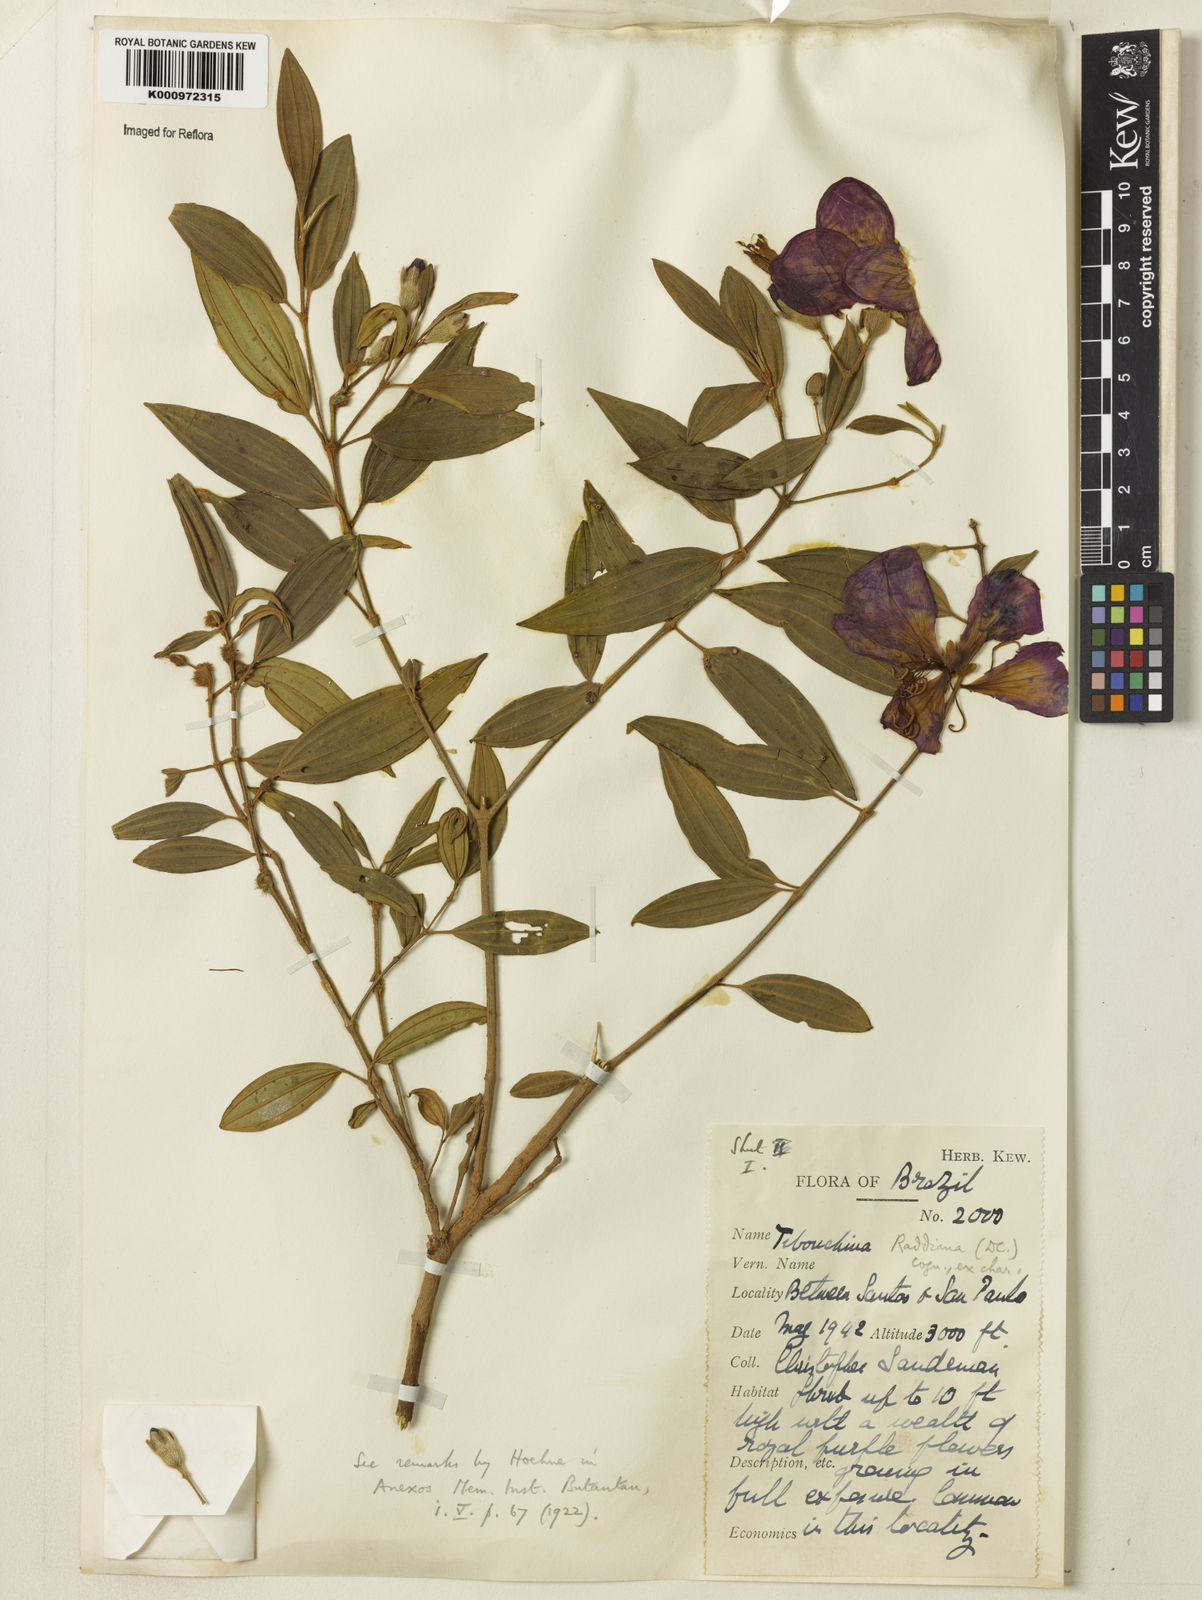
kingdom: Plantae
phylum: Tracheophyta
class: Magnoliopsida
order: Myrtales
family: Melastomataceae
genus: Pleroma
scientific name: Pleroma raddianum
